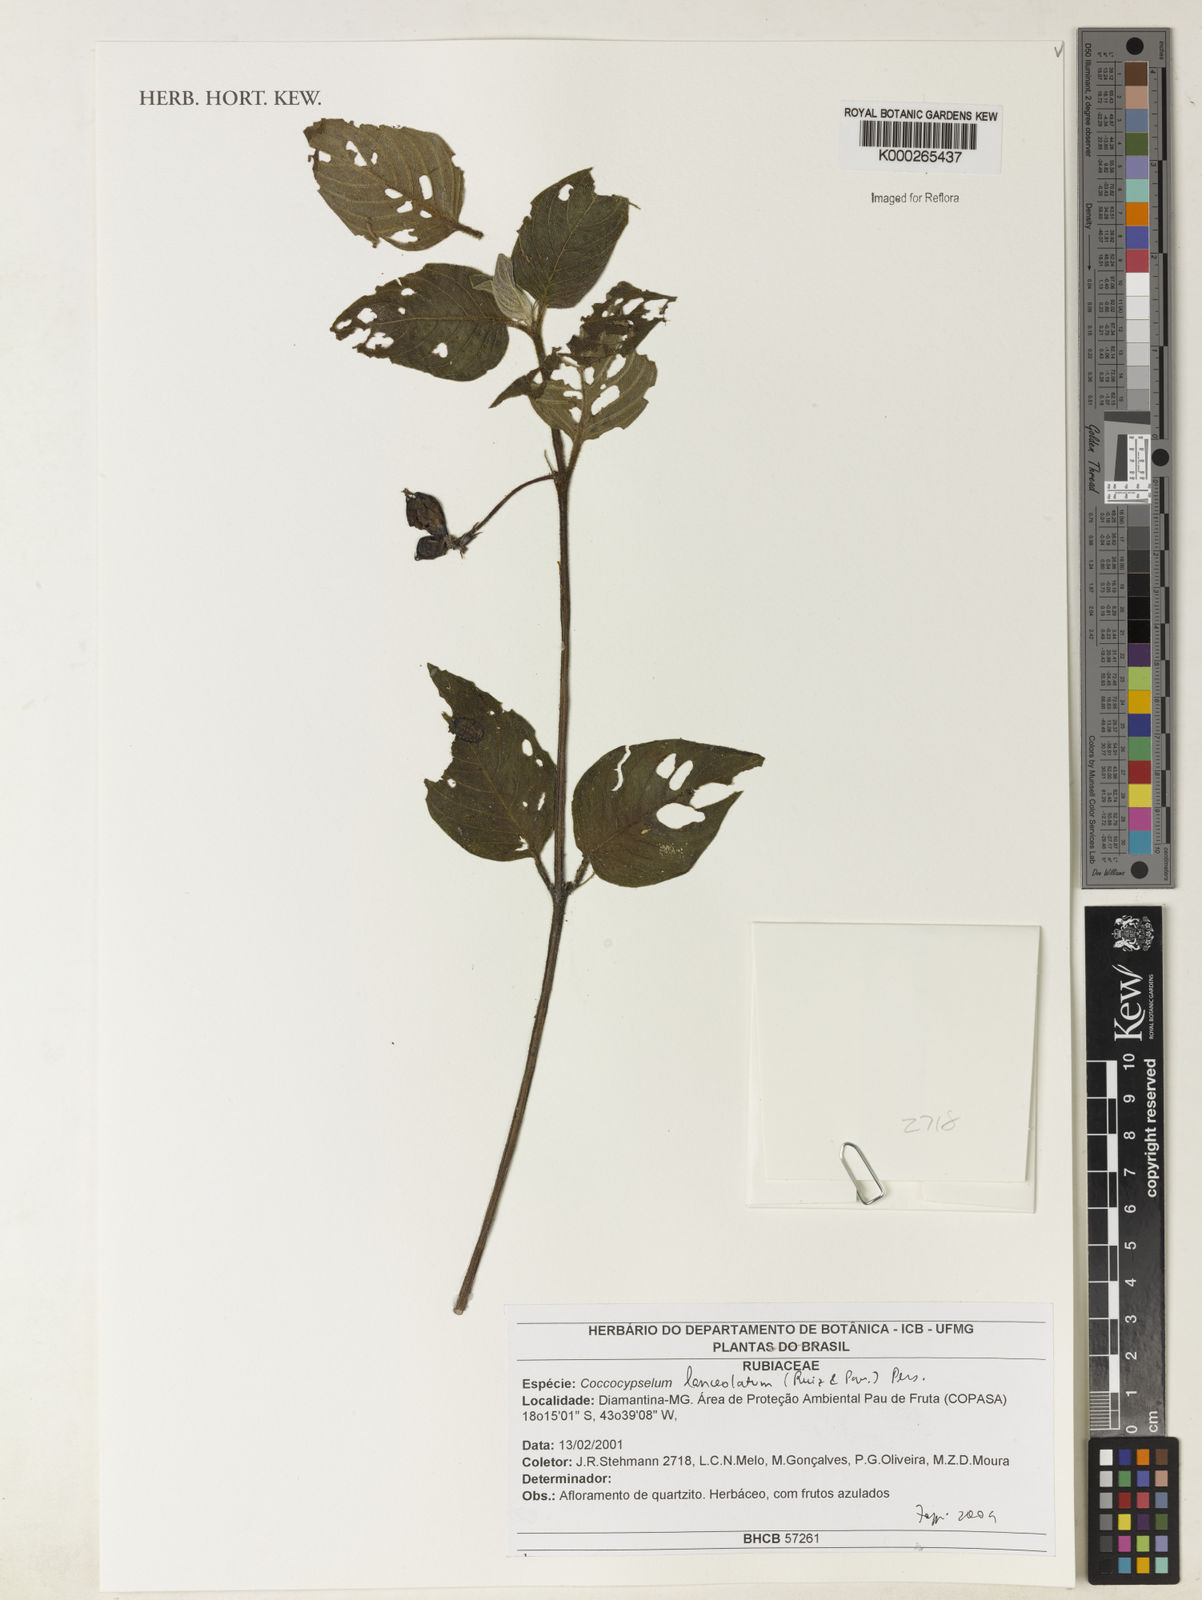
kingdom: Plantae
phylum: Tracheophyta
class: Magnoliopsida
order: Gentianales
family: Rubiaceae
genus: Coccocypselum
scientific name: Coccocypselum lanceolatum
